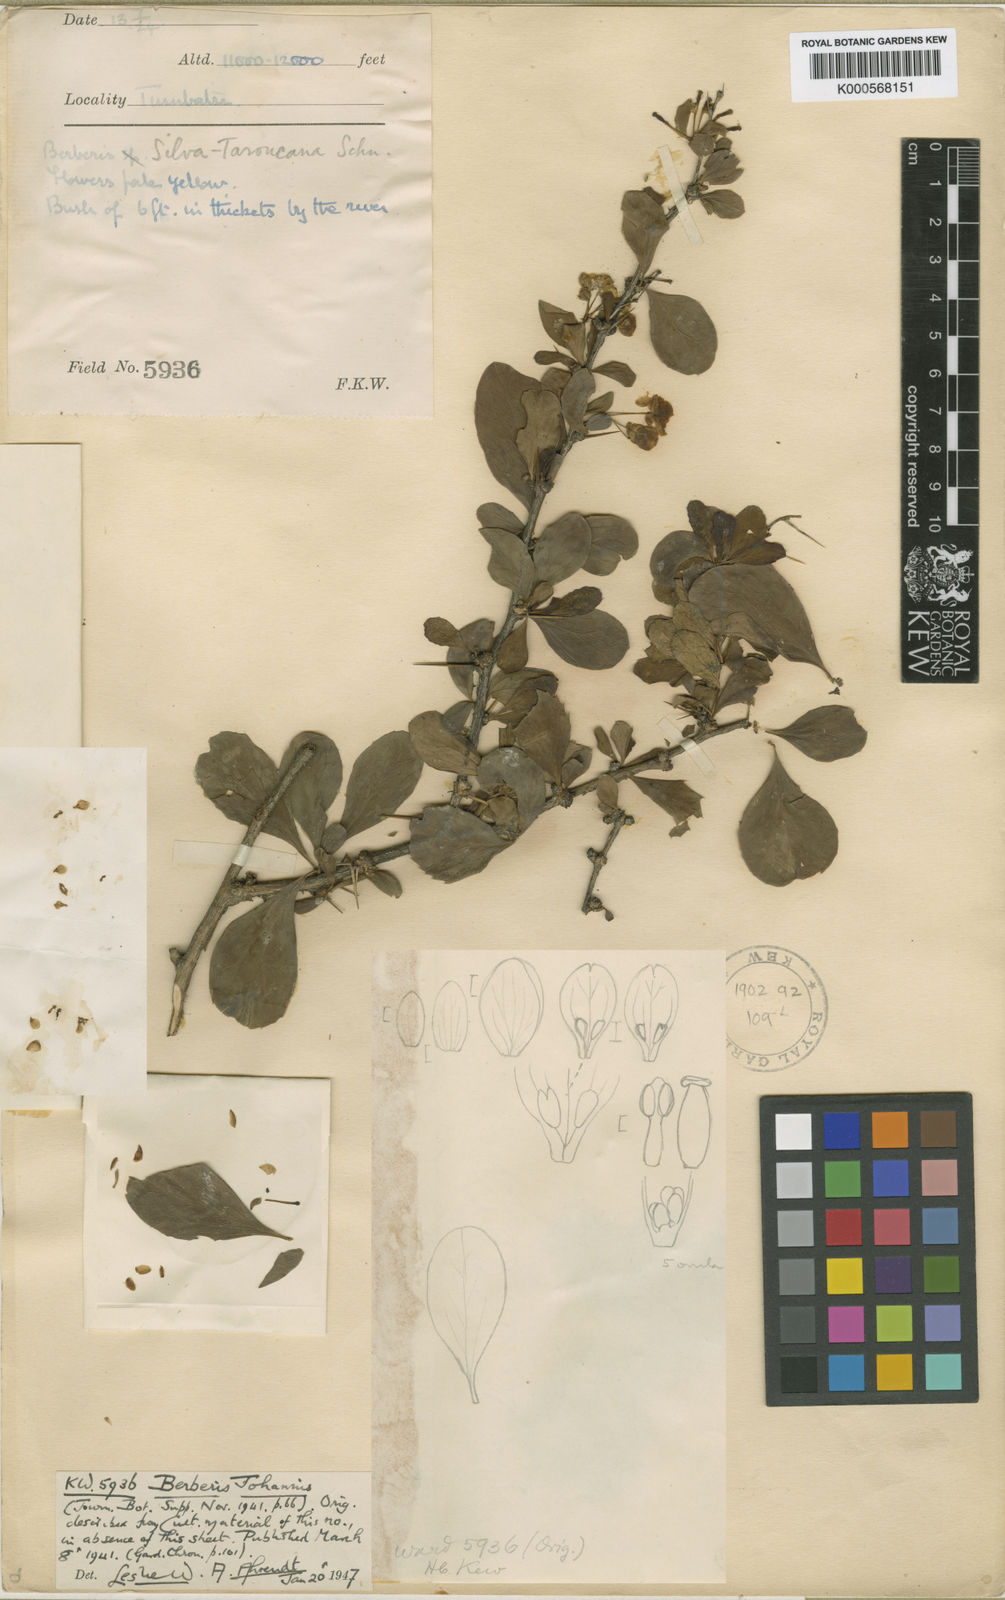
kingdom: Plantae
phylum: Tracheophyta
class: Magnoliopsida
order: Ranunculales
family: Berberidaceae
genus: Berberis
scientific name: Berberis johannis
